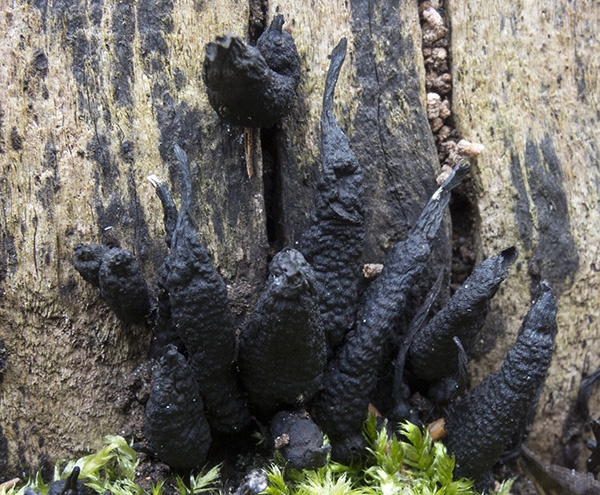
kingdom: Fungi
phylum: Ascomycota
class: Sordariomycetes
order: Xylariales
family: Xylariaceae
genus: Xylaria
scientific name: Xylaria hypoxylon
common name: grenet stødsvamp
